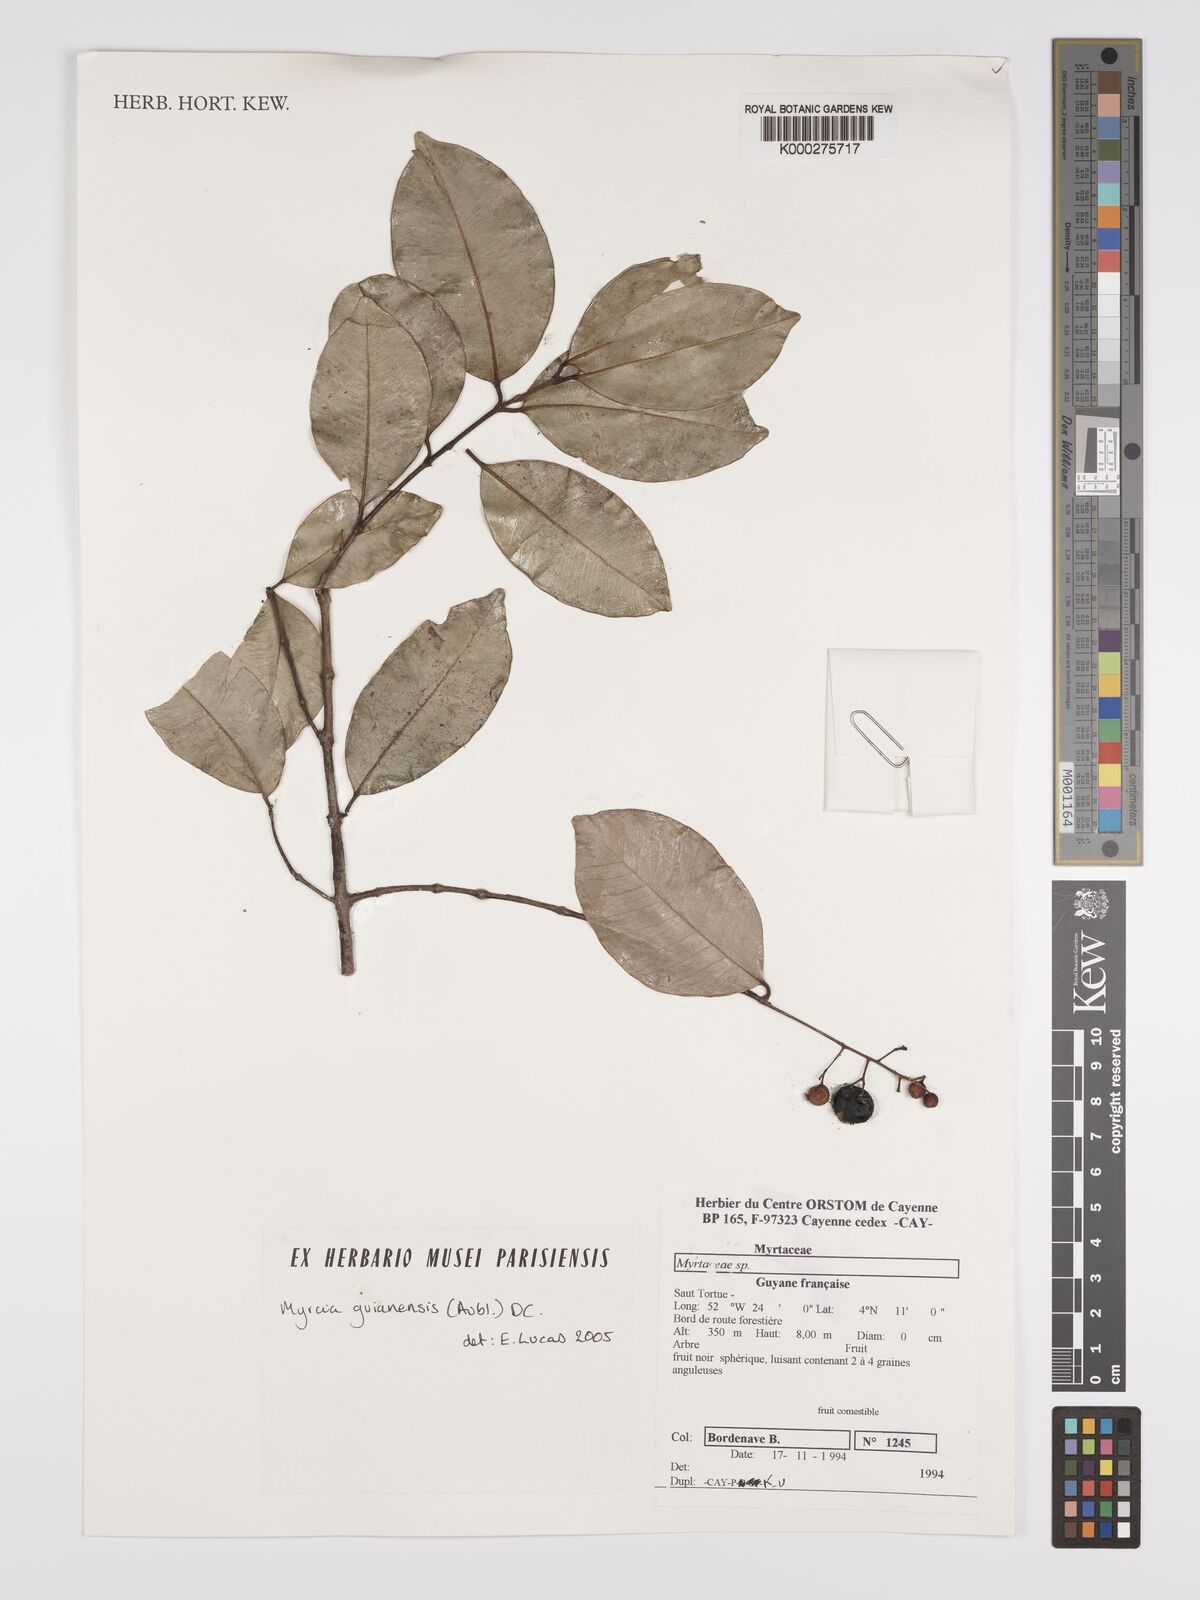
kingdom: Plantae
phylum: Tracheophyta
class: Magnoliopsida
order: Myrtales
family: Myrtaceae
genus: Myrcia
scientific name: Myrcia guianensis
